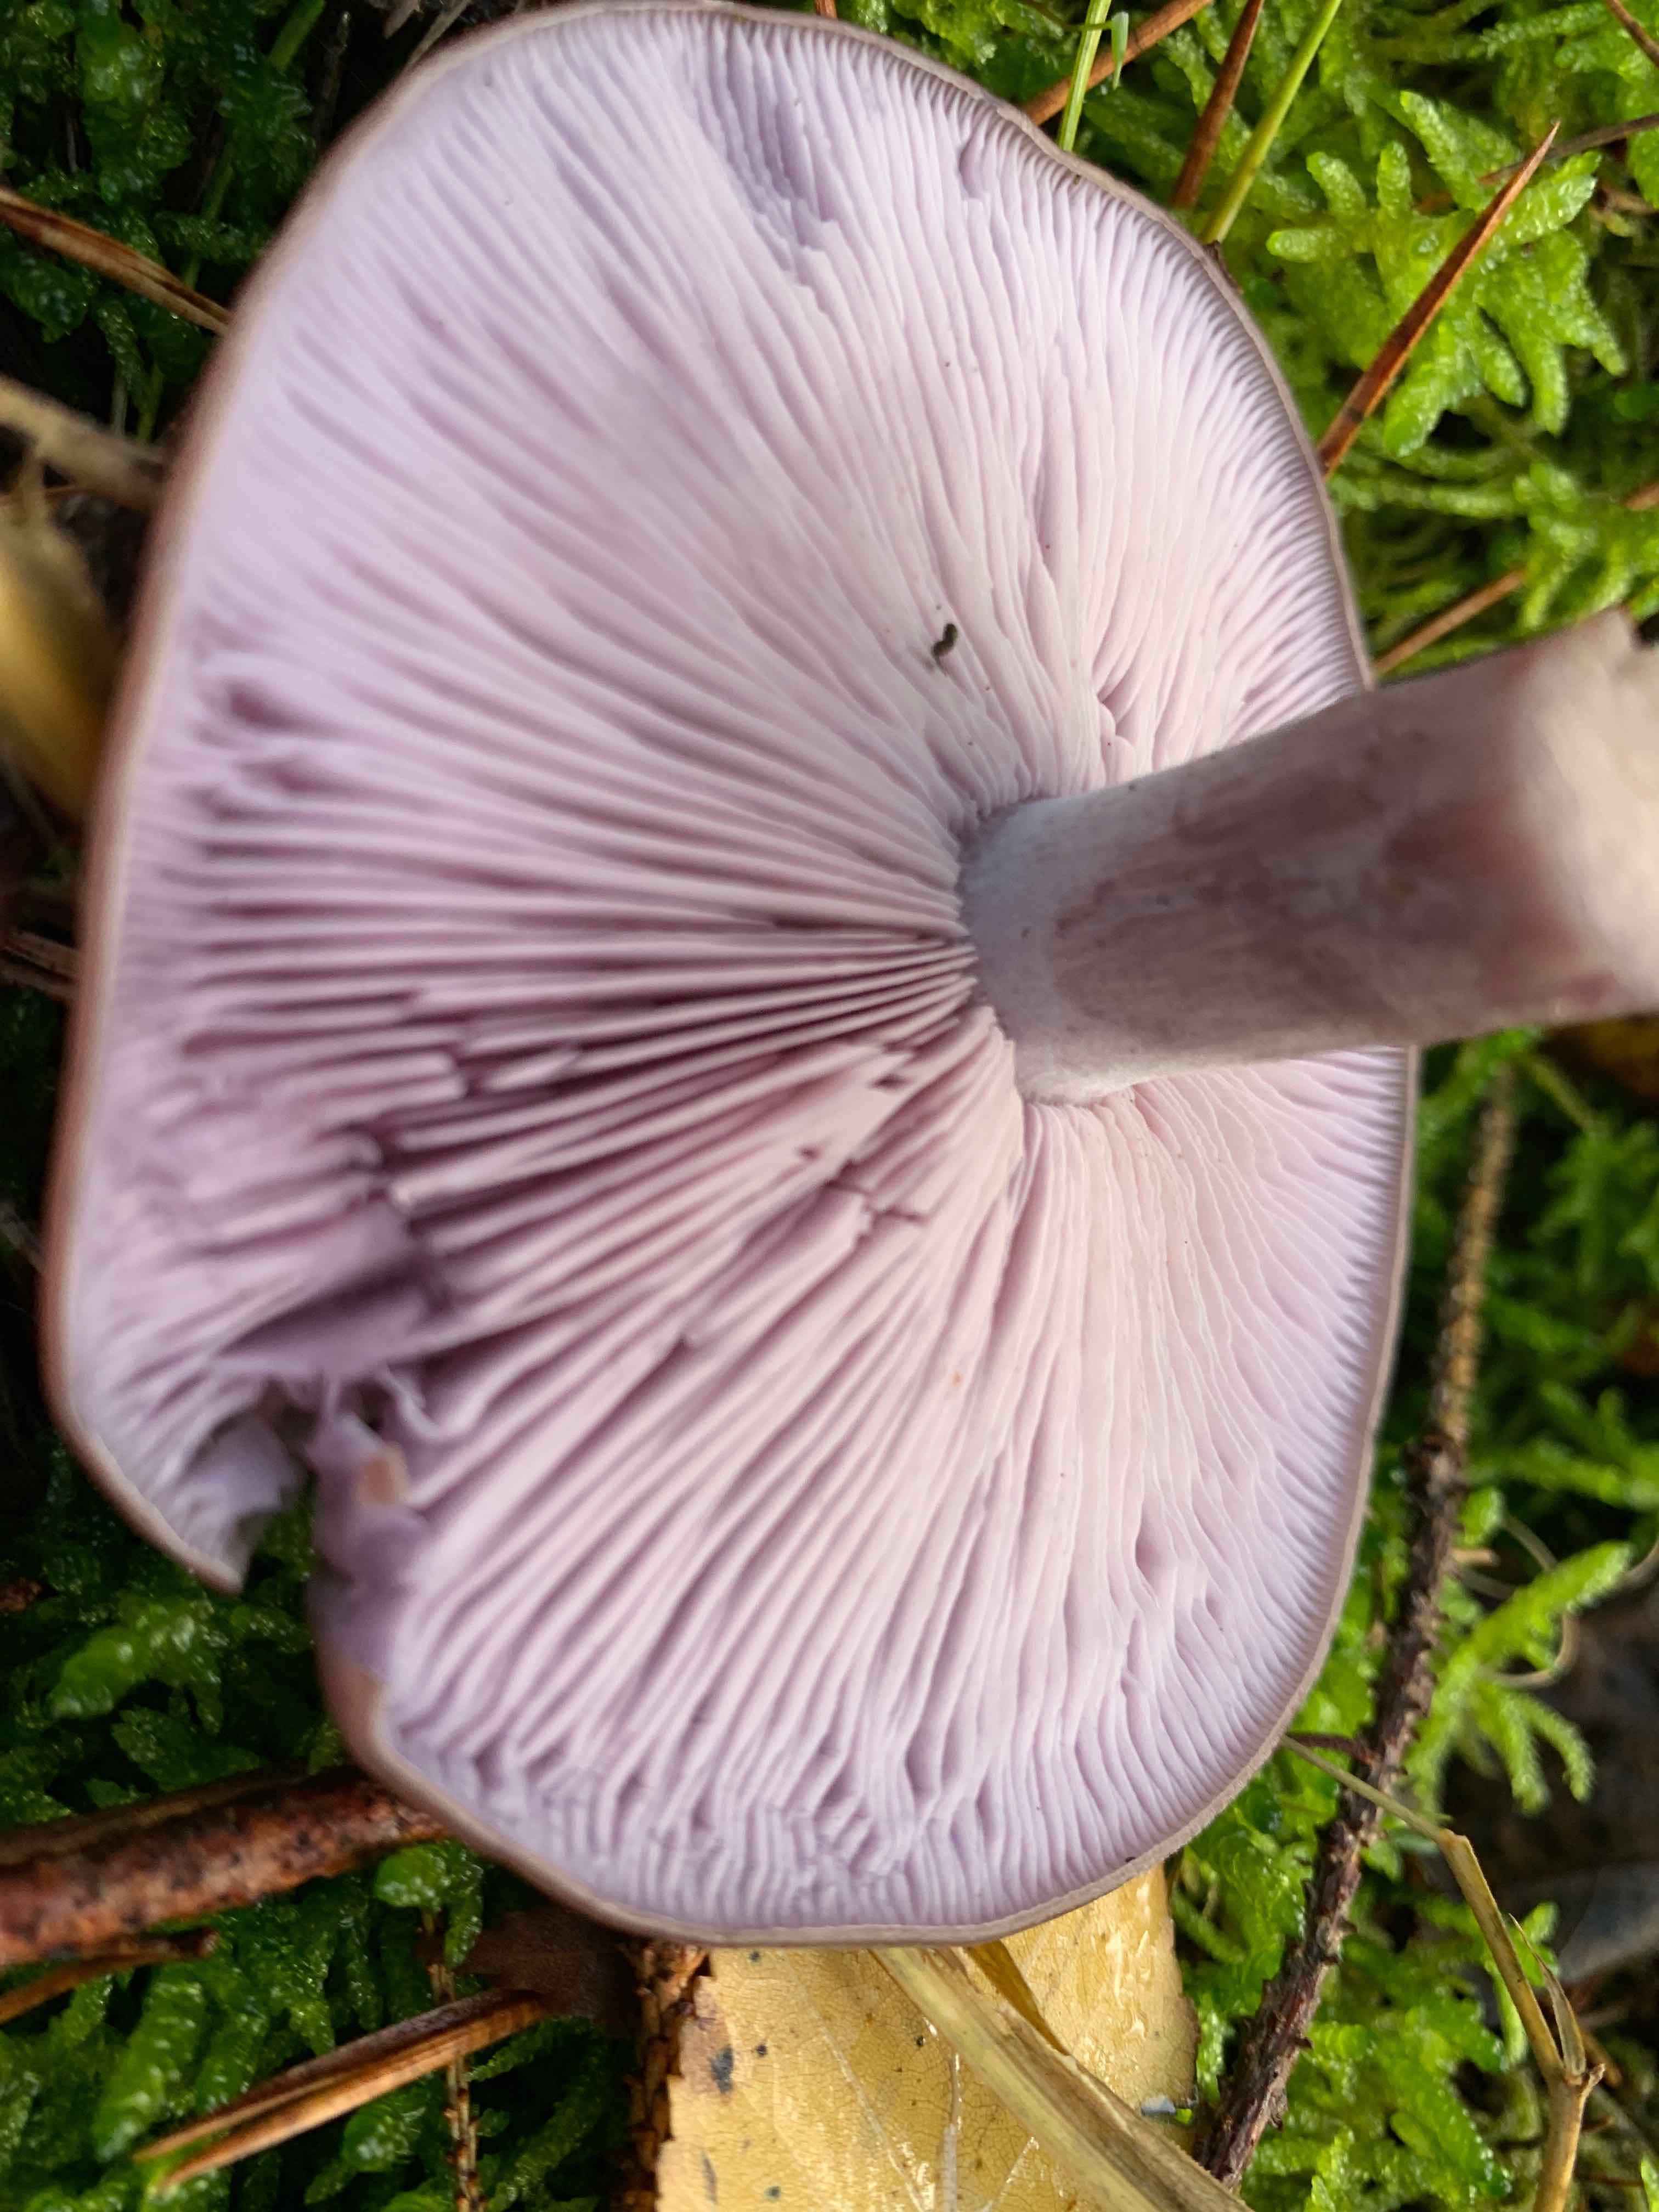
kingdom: Fungi
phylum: Basidiomycota
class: Agaricomycetes
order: Agaricales
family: Tricholomataceae
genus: Lepista
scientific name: Lepista nuda
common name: violet hekseringshat
